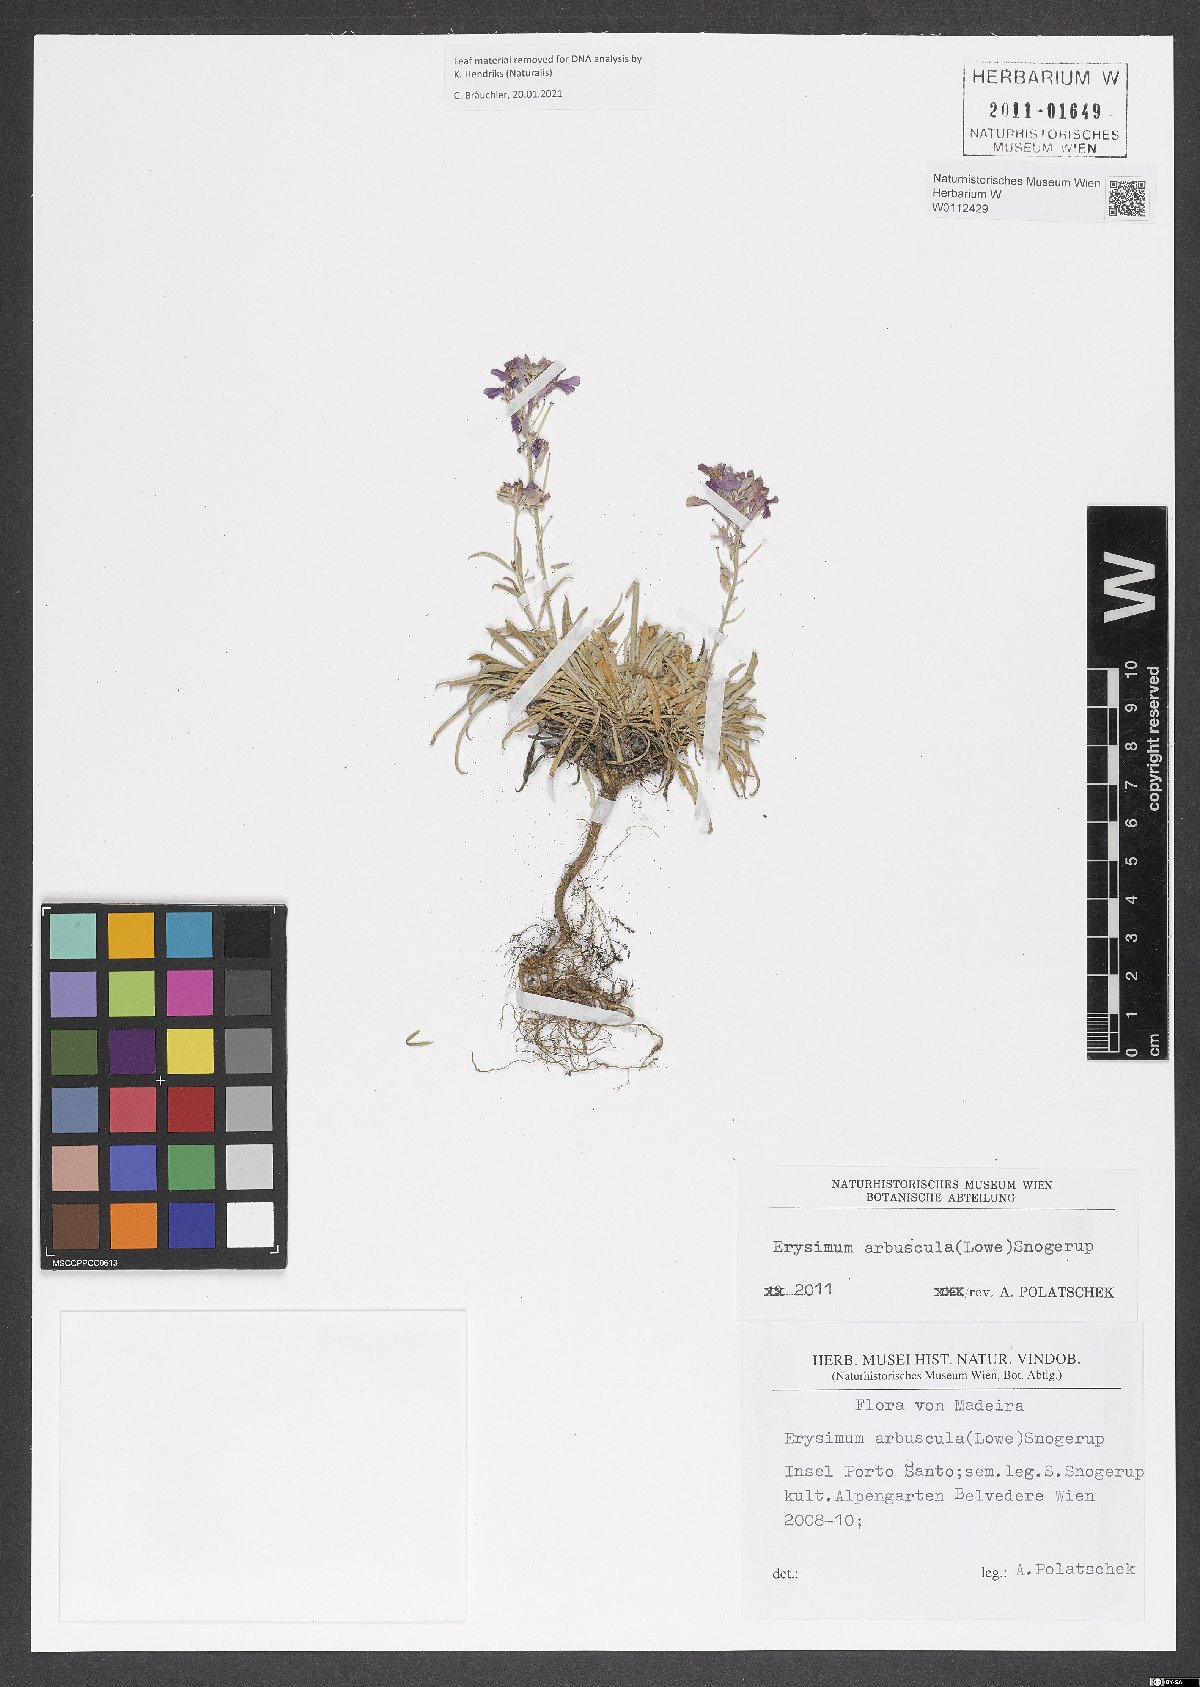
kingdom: Plantae
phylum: Tracheophyta
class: Magnoliopsida
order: Brassicales
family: Brassicaceae
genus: Erysimum
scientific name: Erysimum arbuscula
